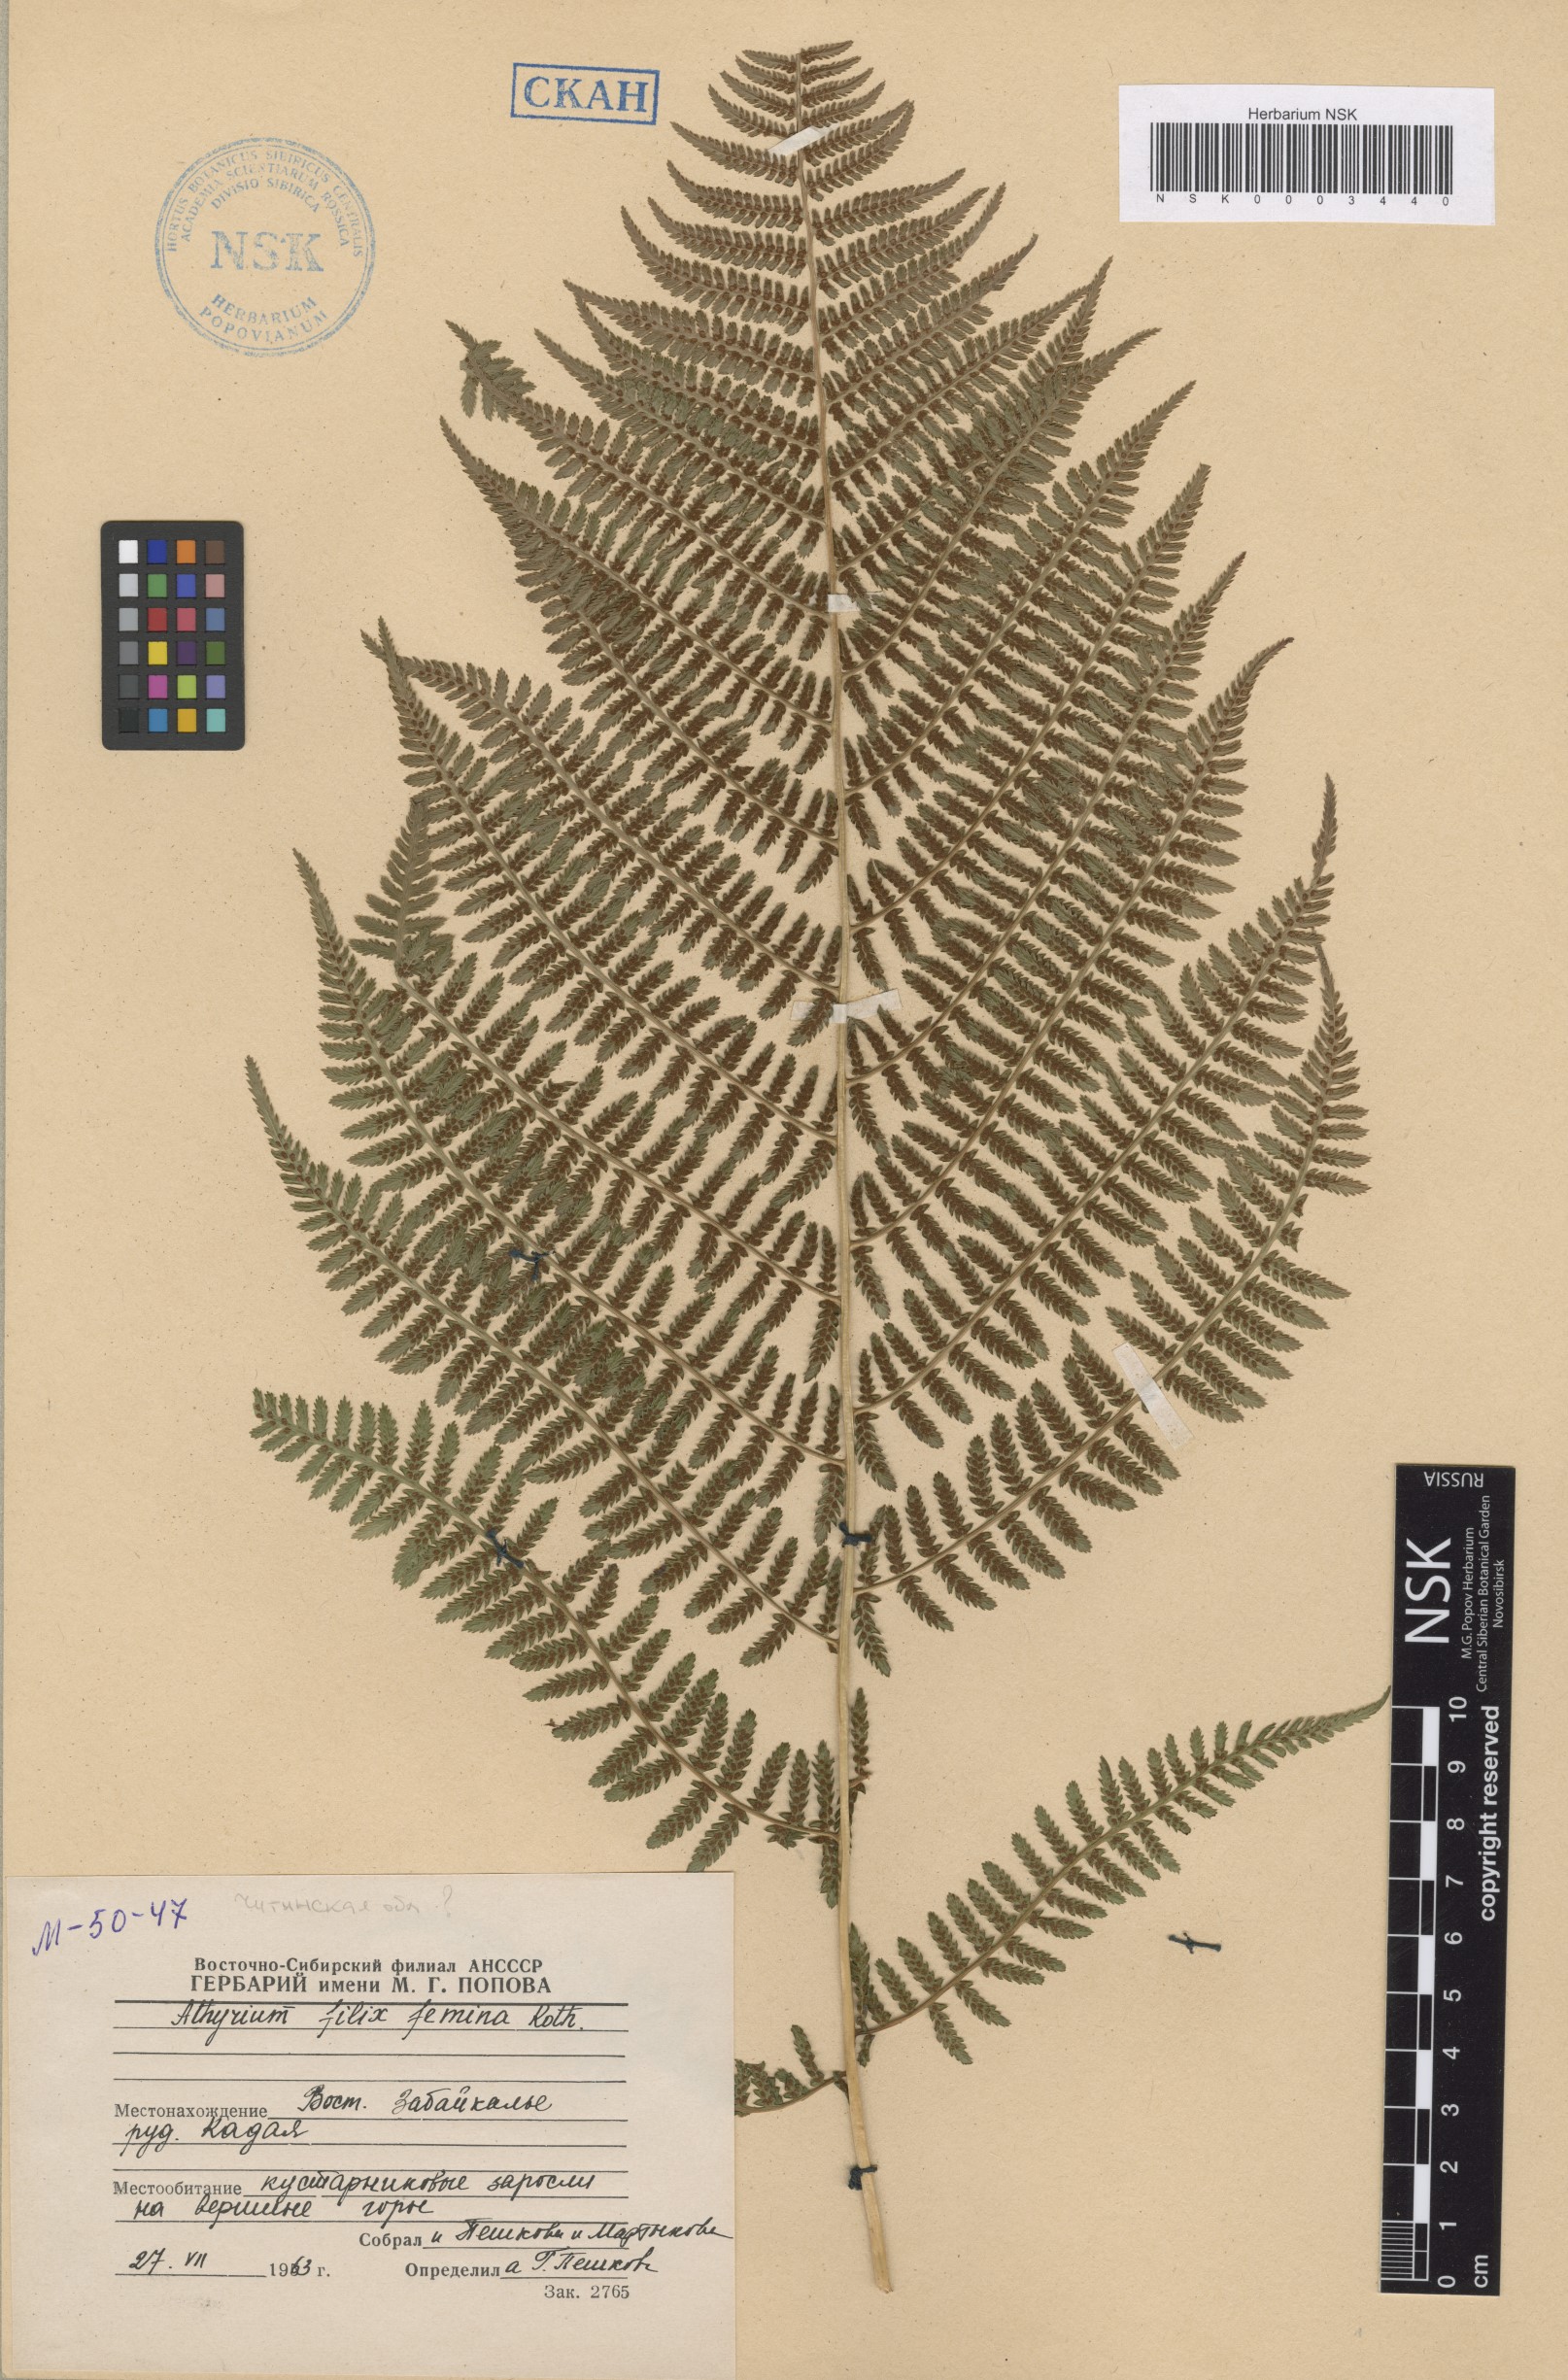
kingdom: Plantae
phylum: Tracheophyta
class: Polypodiopsida
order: Polypodiales
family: Athyriaceae
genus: Athyrium
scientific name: Athyrium filix-femina
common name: Lady fern
